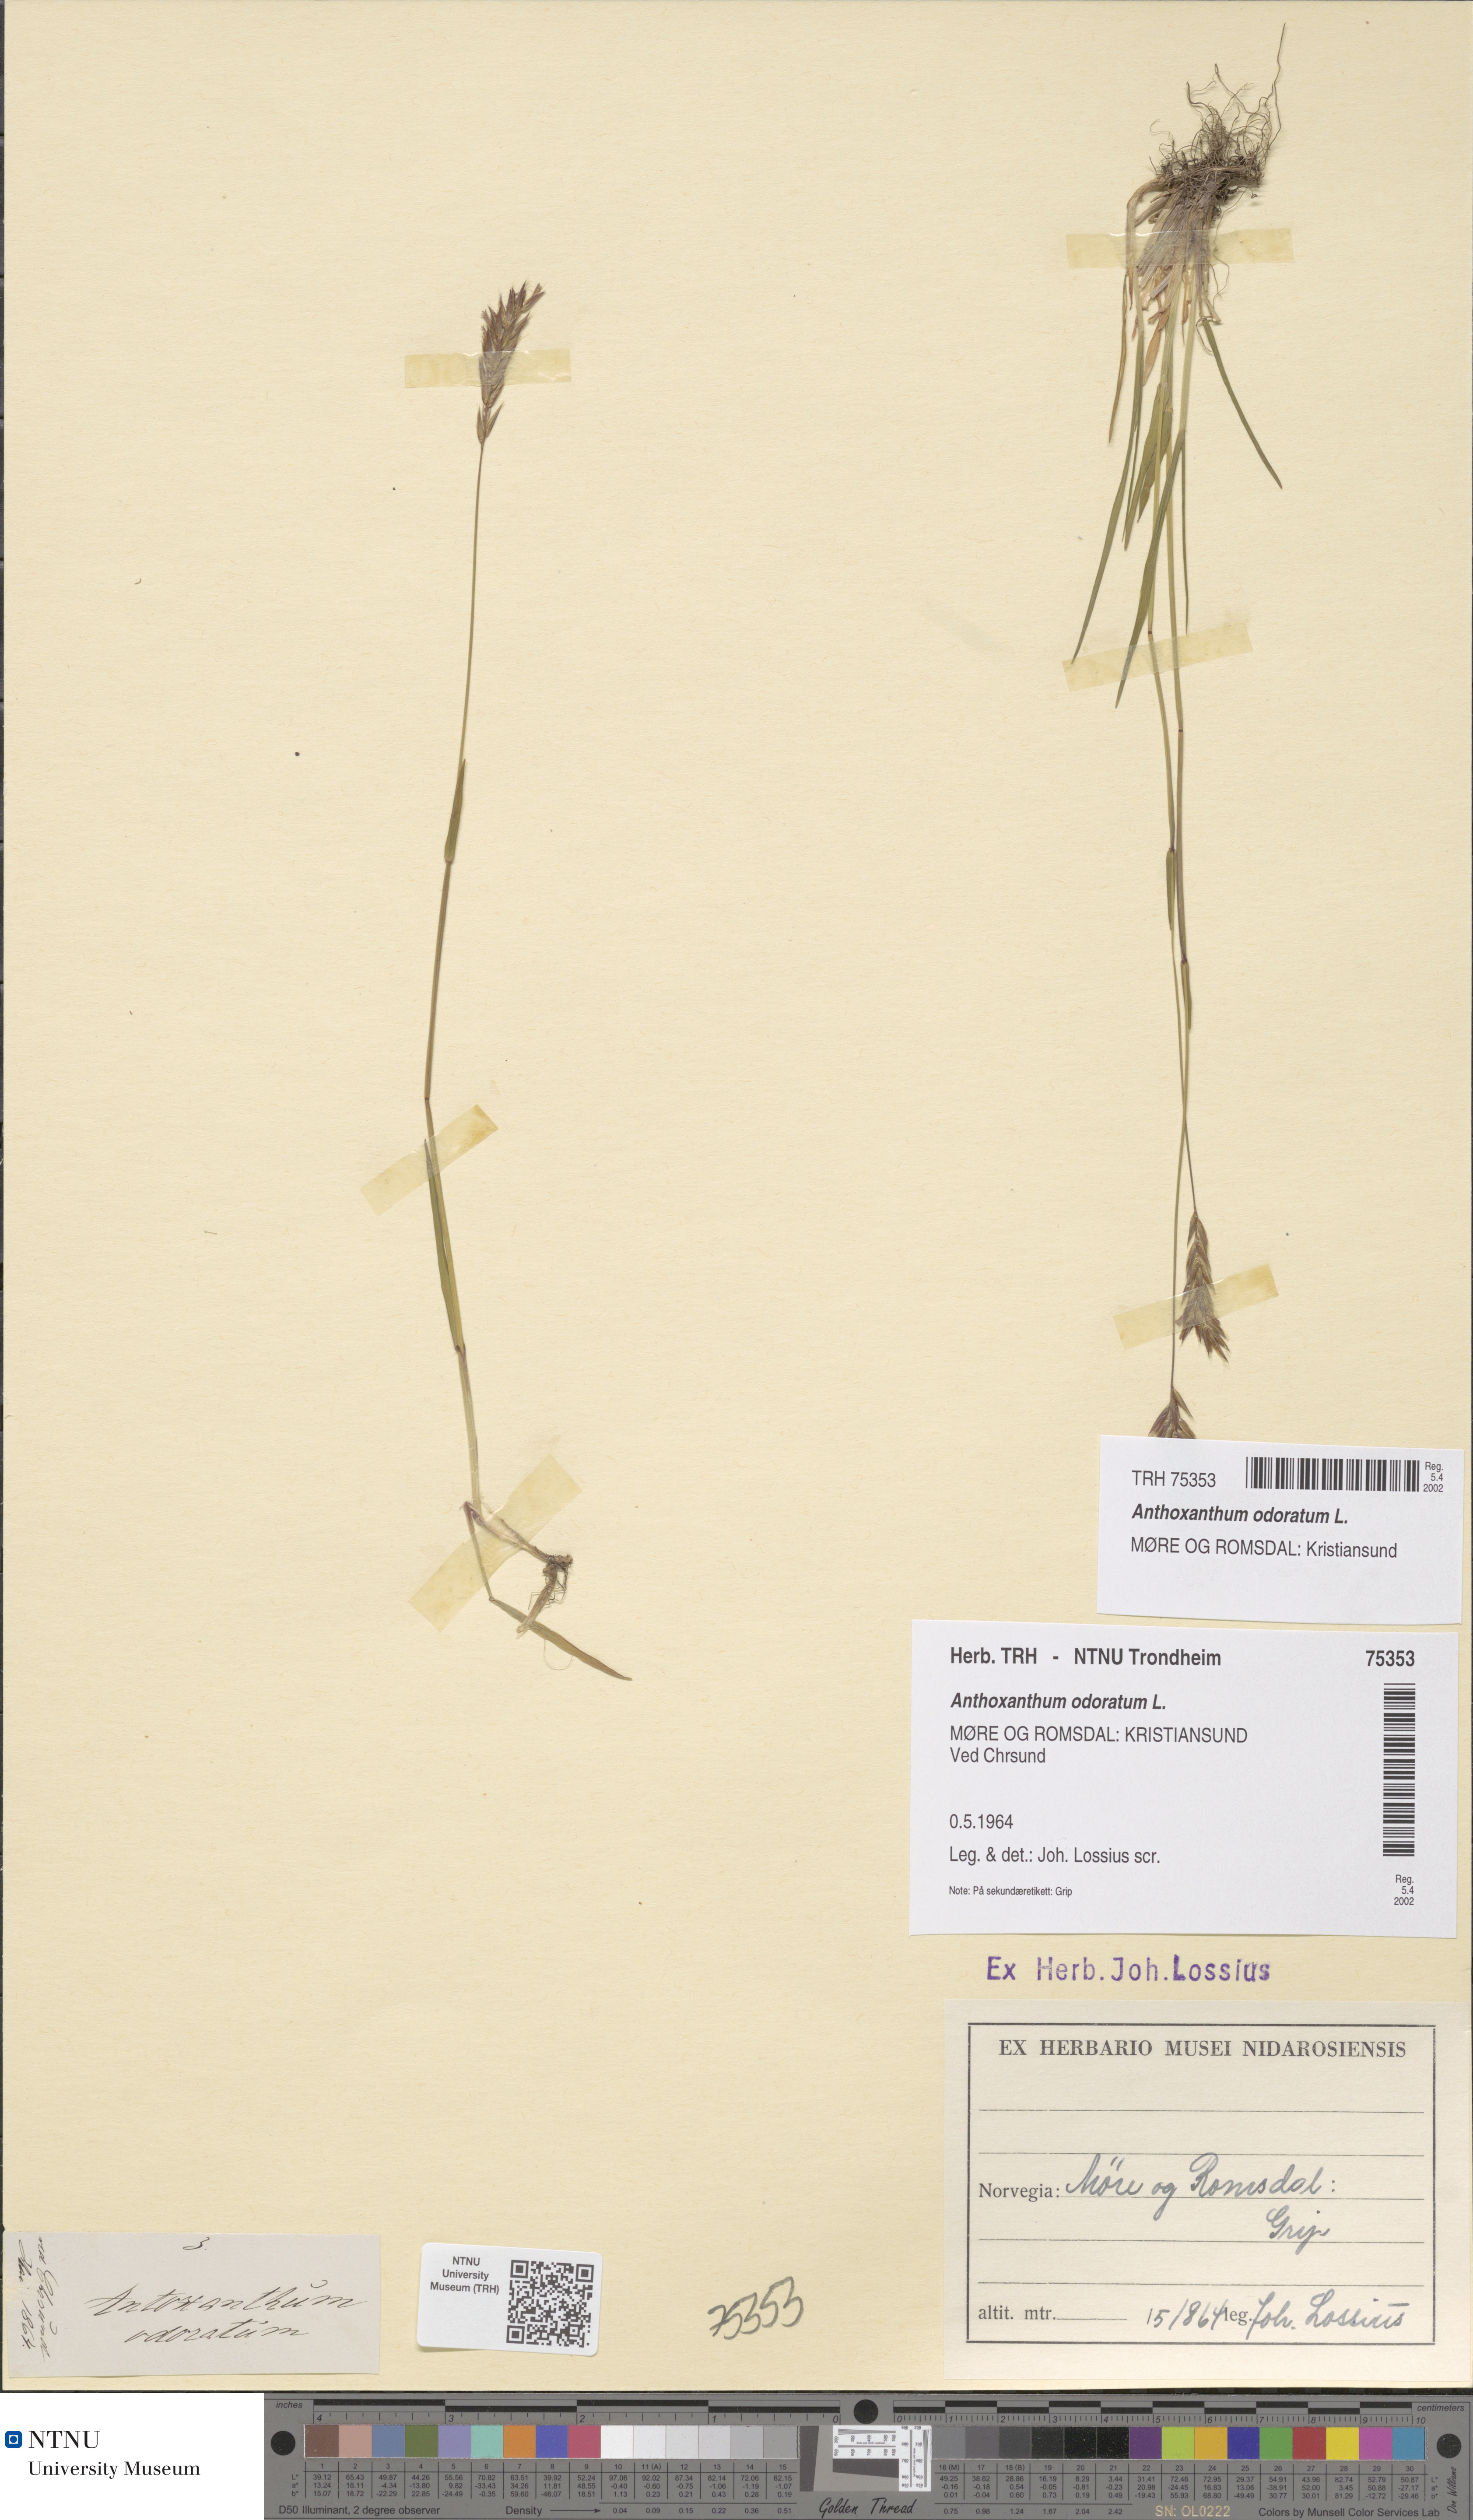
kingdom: Plantae
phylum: Tracheophyta
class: Liliopsida
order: Poales
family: Poaceae
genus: Anthoxanthum
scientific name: Anthoxanthum odoratum
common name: Sweet vernalgrass
